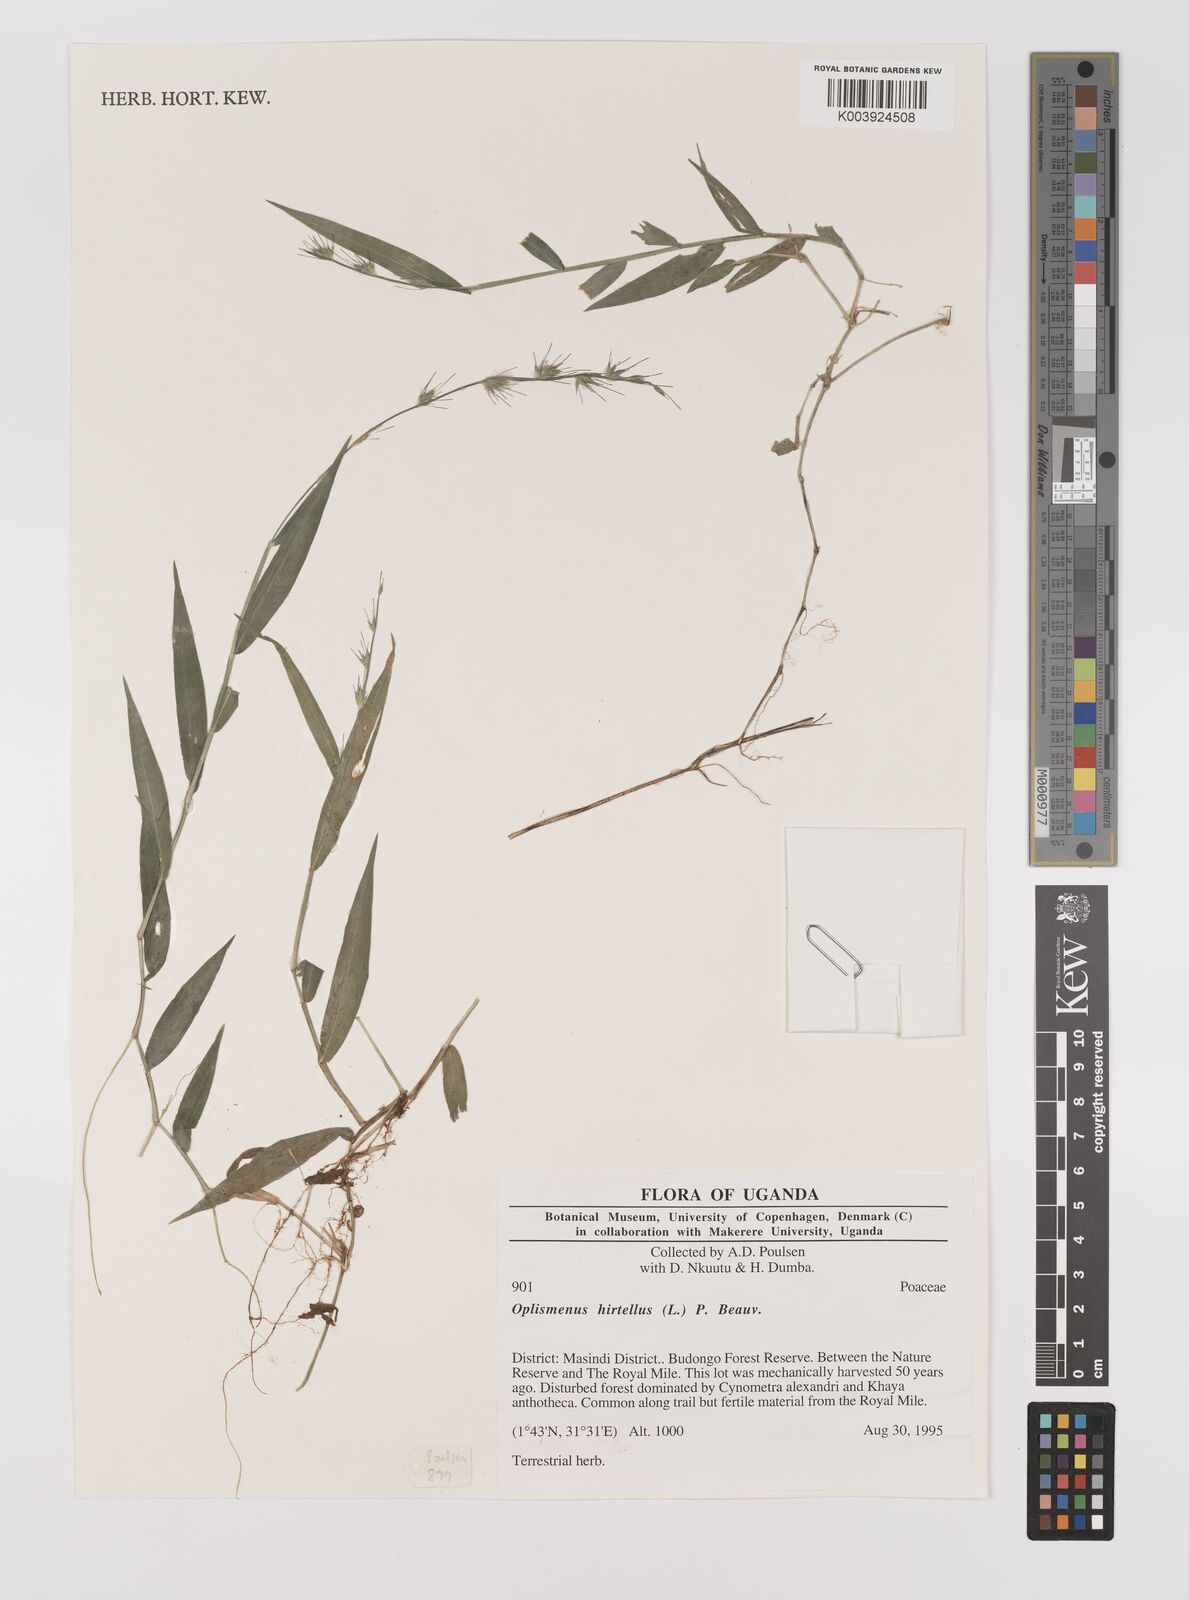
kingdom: Plantae
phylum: Tracheophyta
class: Liliopsida
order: Poales
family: Poaceae
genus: Oplismenus
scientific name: Oplismenus hirtellus
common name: Basketgrass
